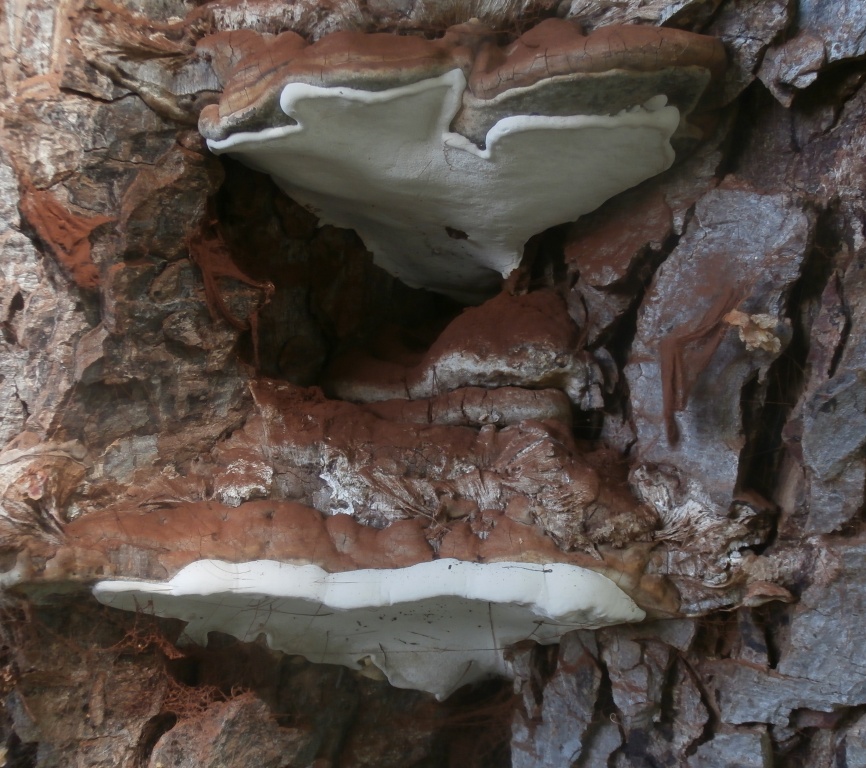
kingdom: Fungi
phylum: Basidiomycota
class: Agaricomycetes
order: Polyporales
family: Polyporaceae
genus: Ganoderma
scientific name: Ganoderma adspersum
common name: grov lakporesvamp
